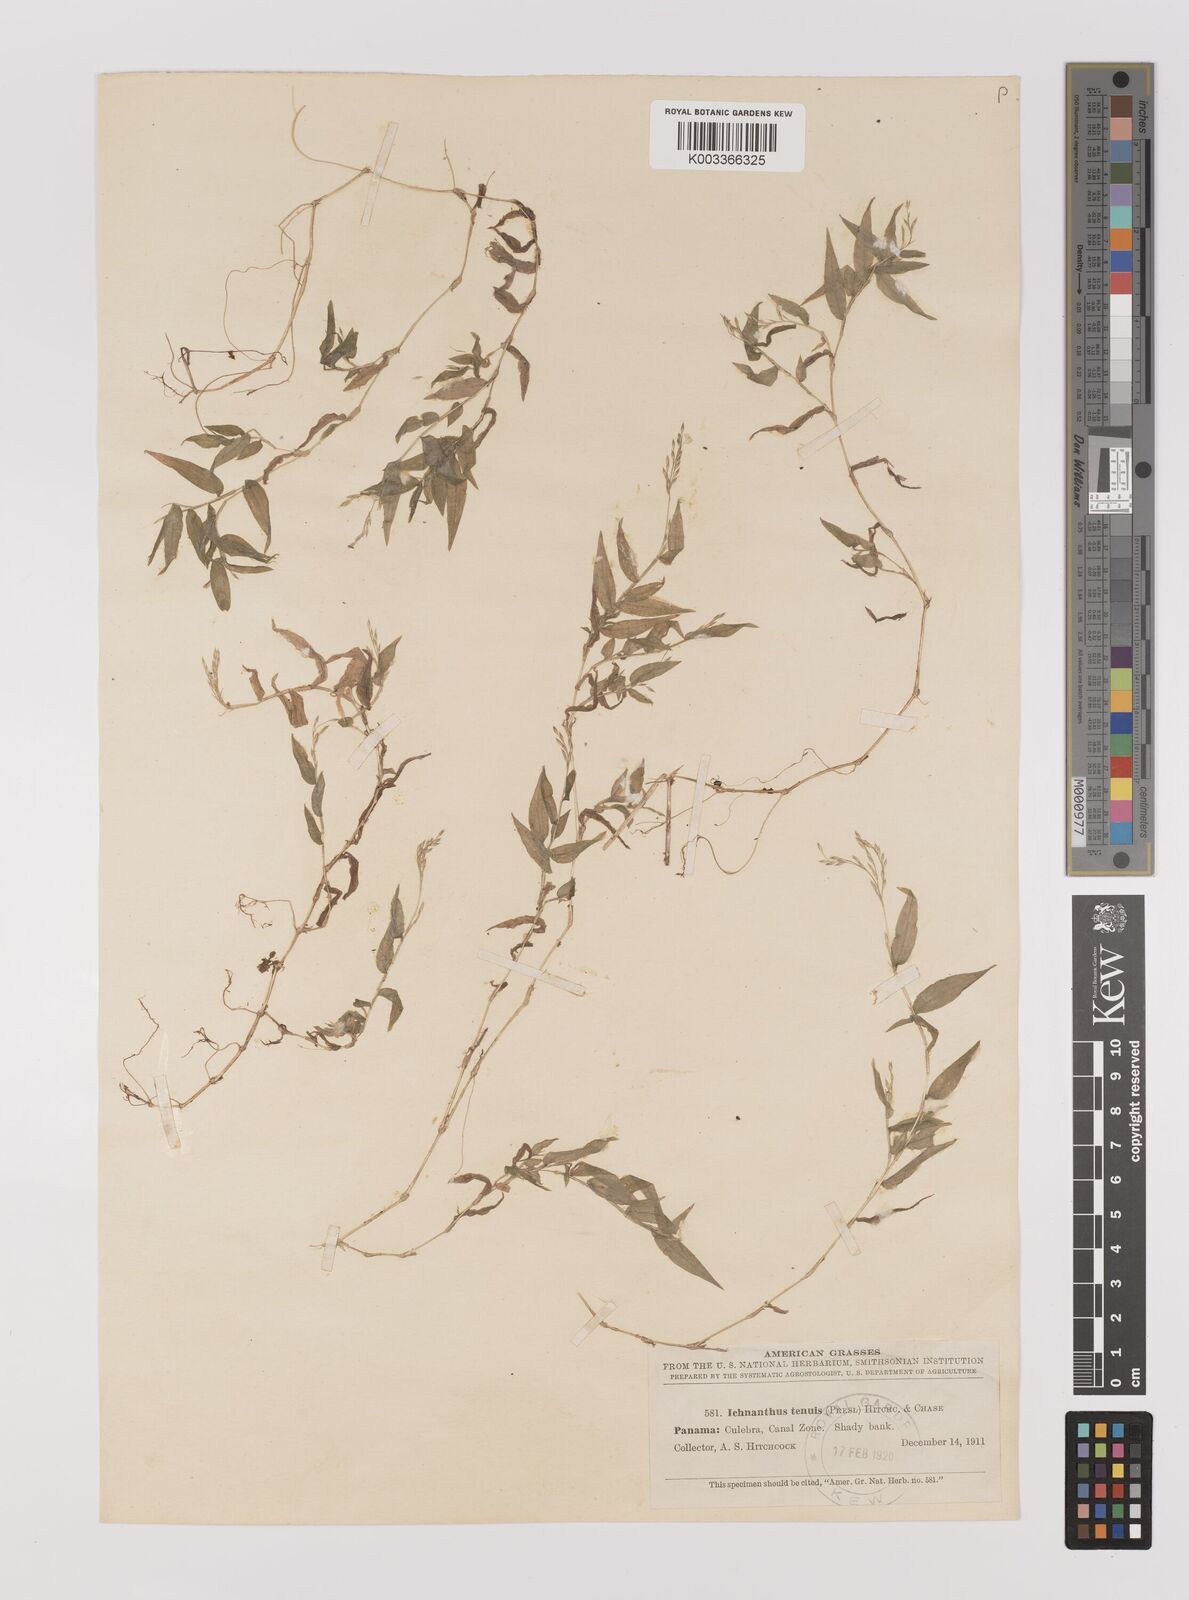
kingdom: Plantae
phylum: Tracheophyta
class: Liliopsida
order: Poales
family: Poaceae
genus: Ichnanthus
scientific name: Ichnanthus tenuis
